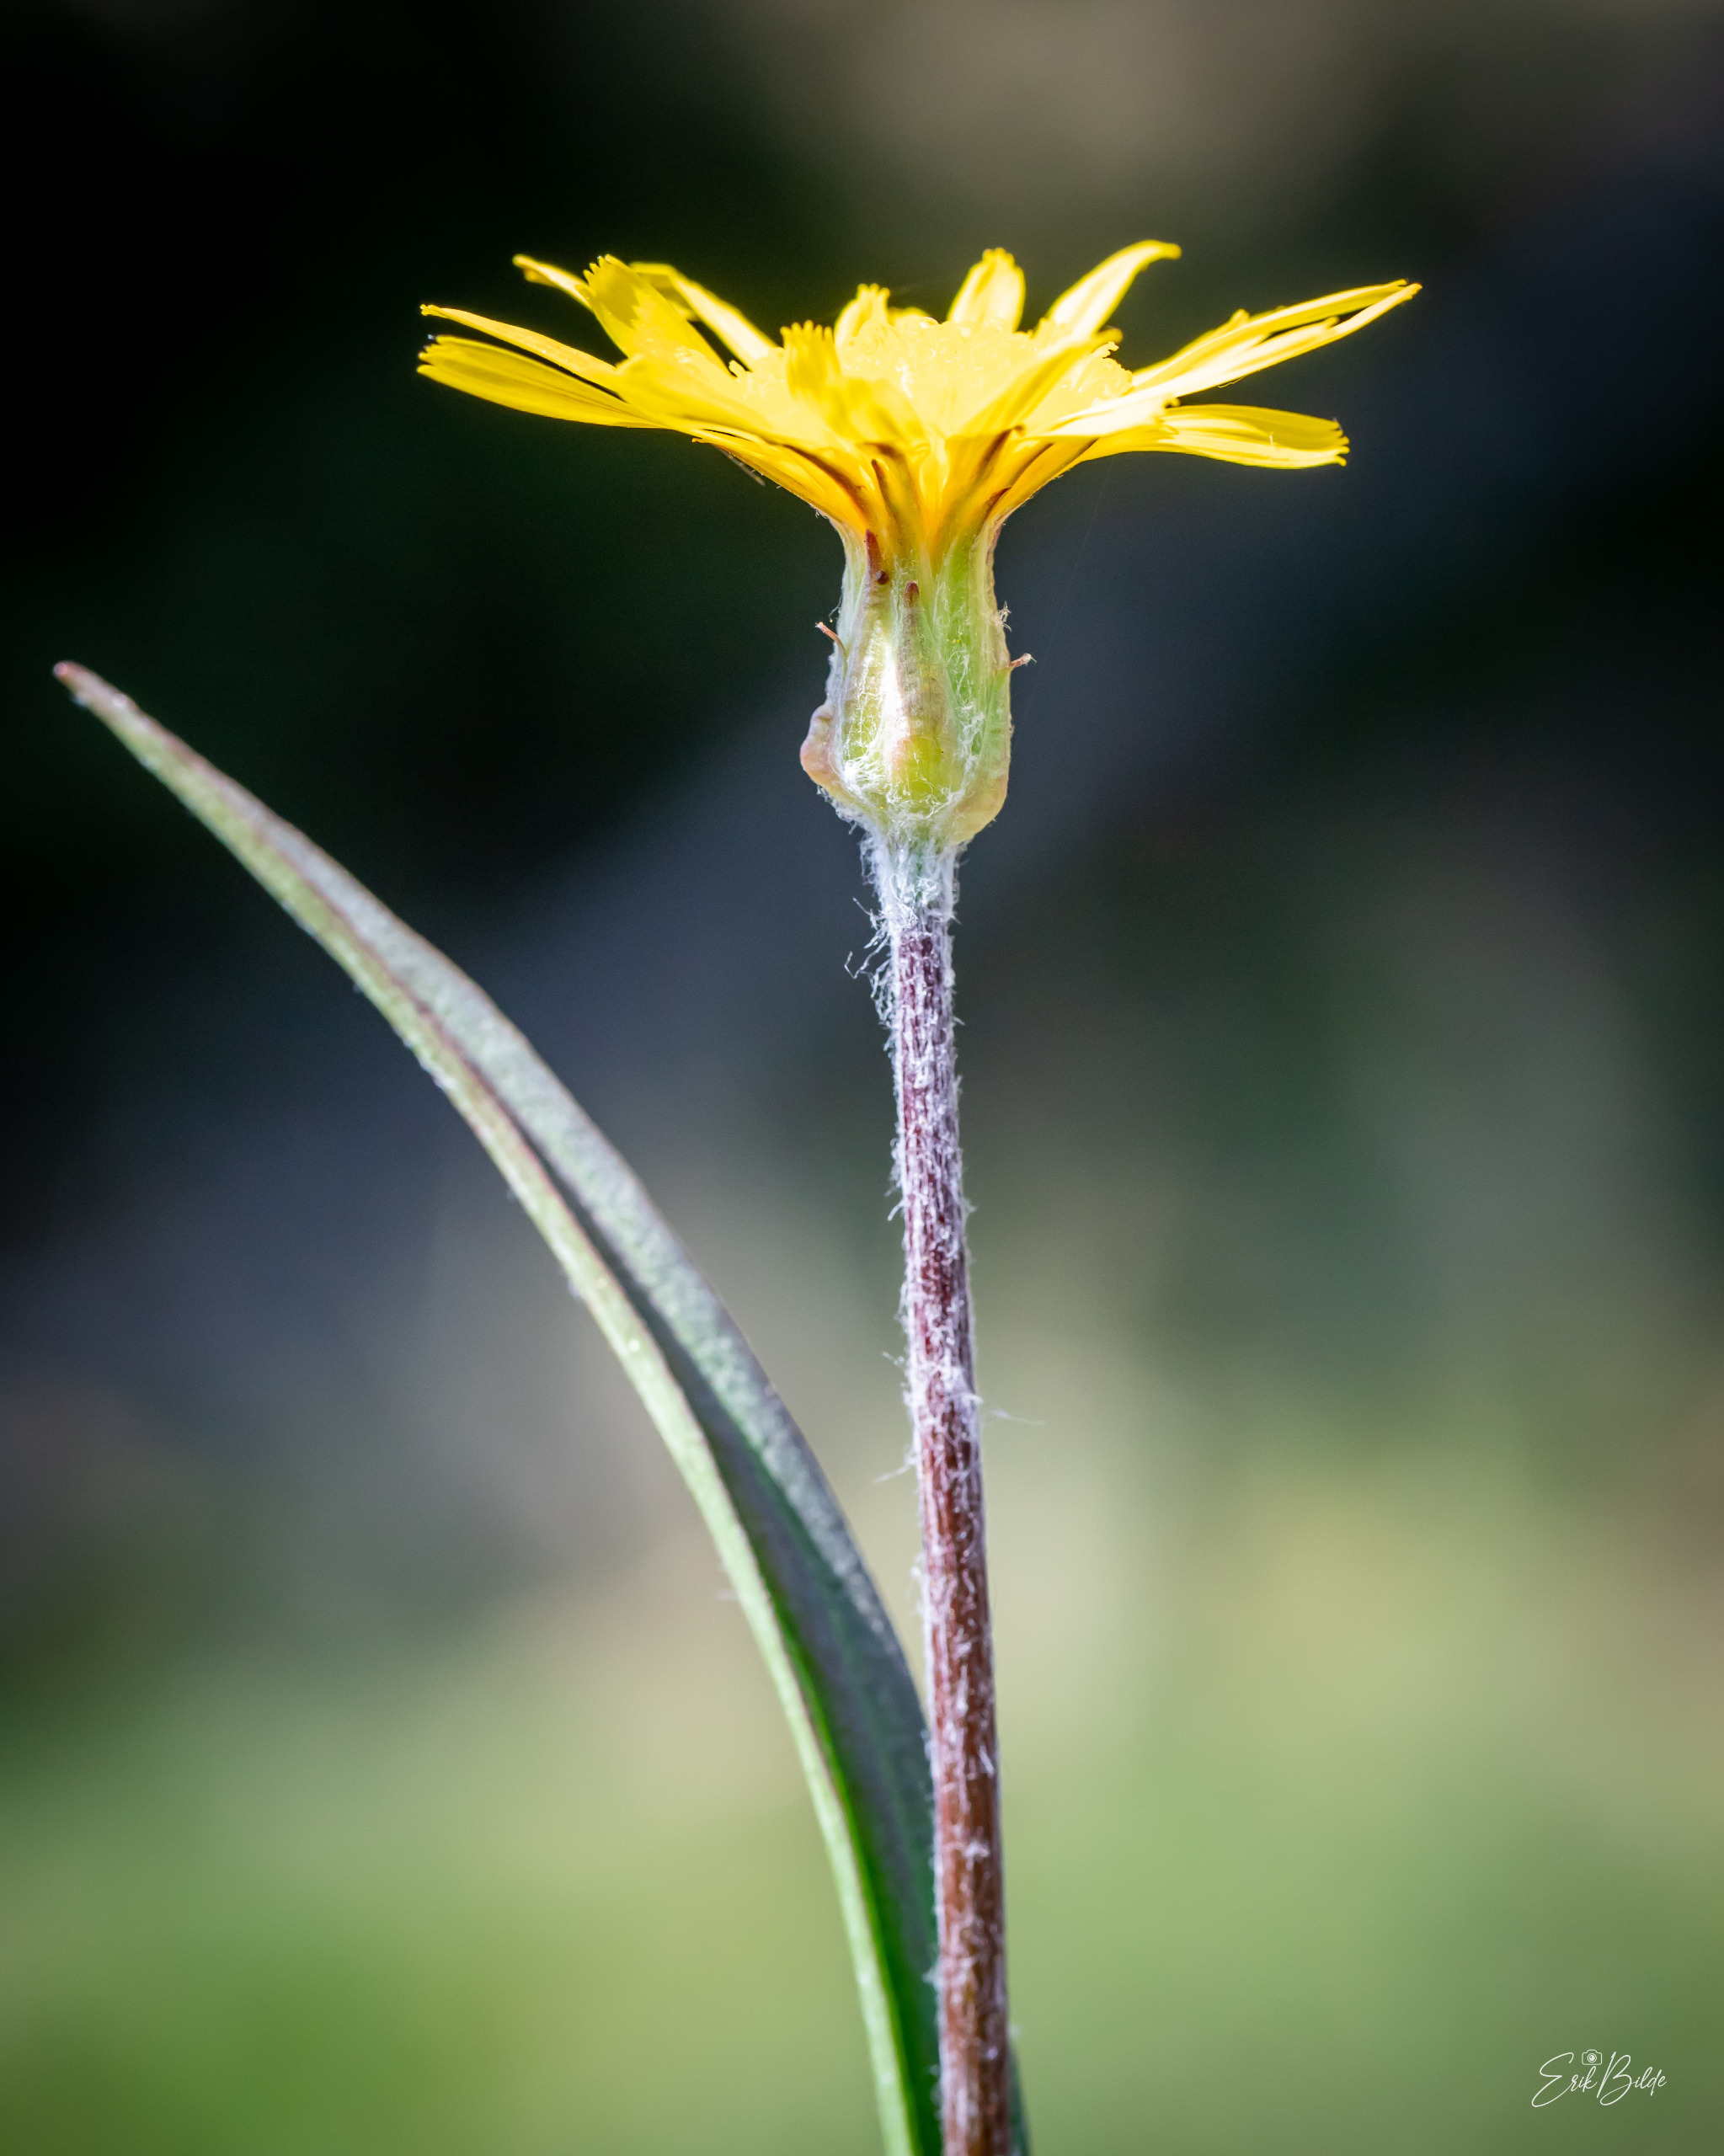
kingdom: Plantae
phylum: Tracheophyta
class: Magnoliopsida
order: Asterales
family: Asteraceae
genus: Scorzonera
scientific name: Scorzonera humilis
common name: Lav skorsoner
